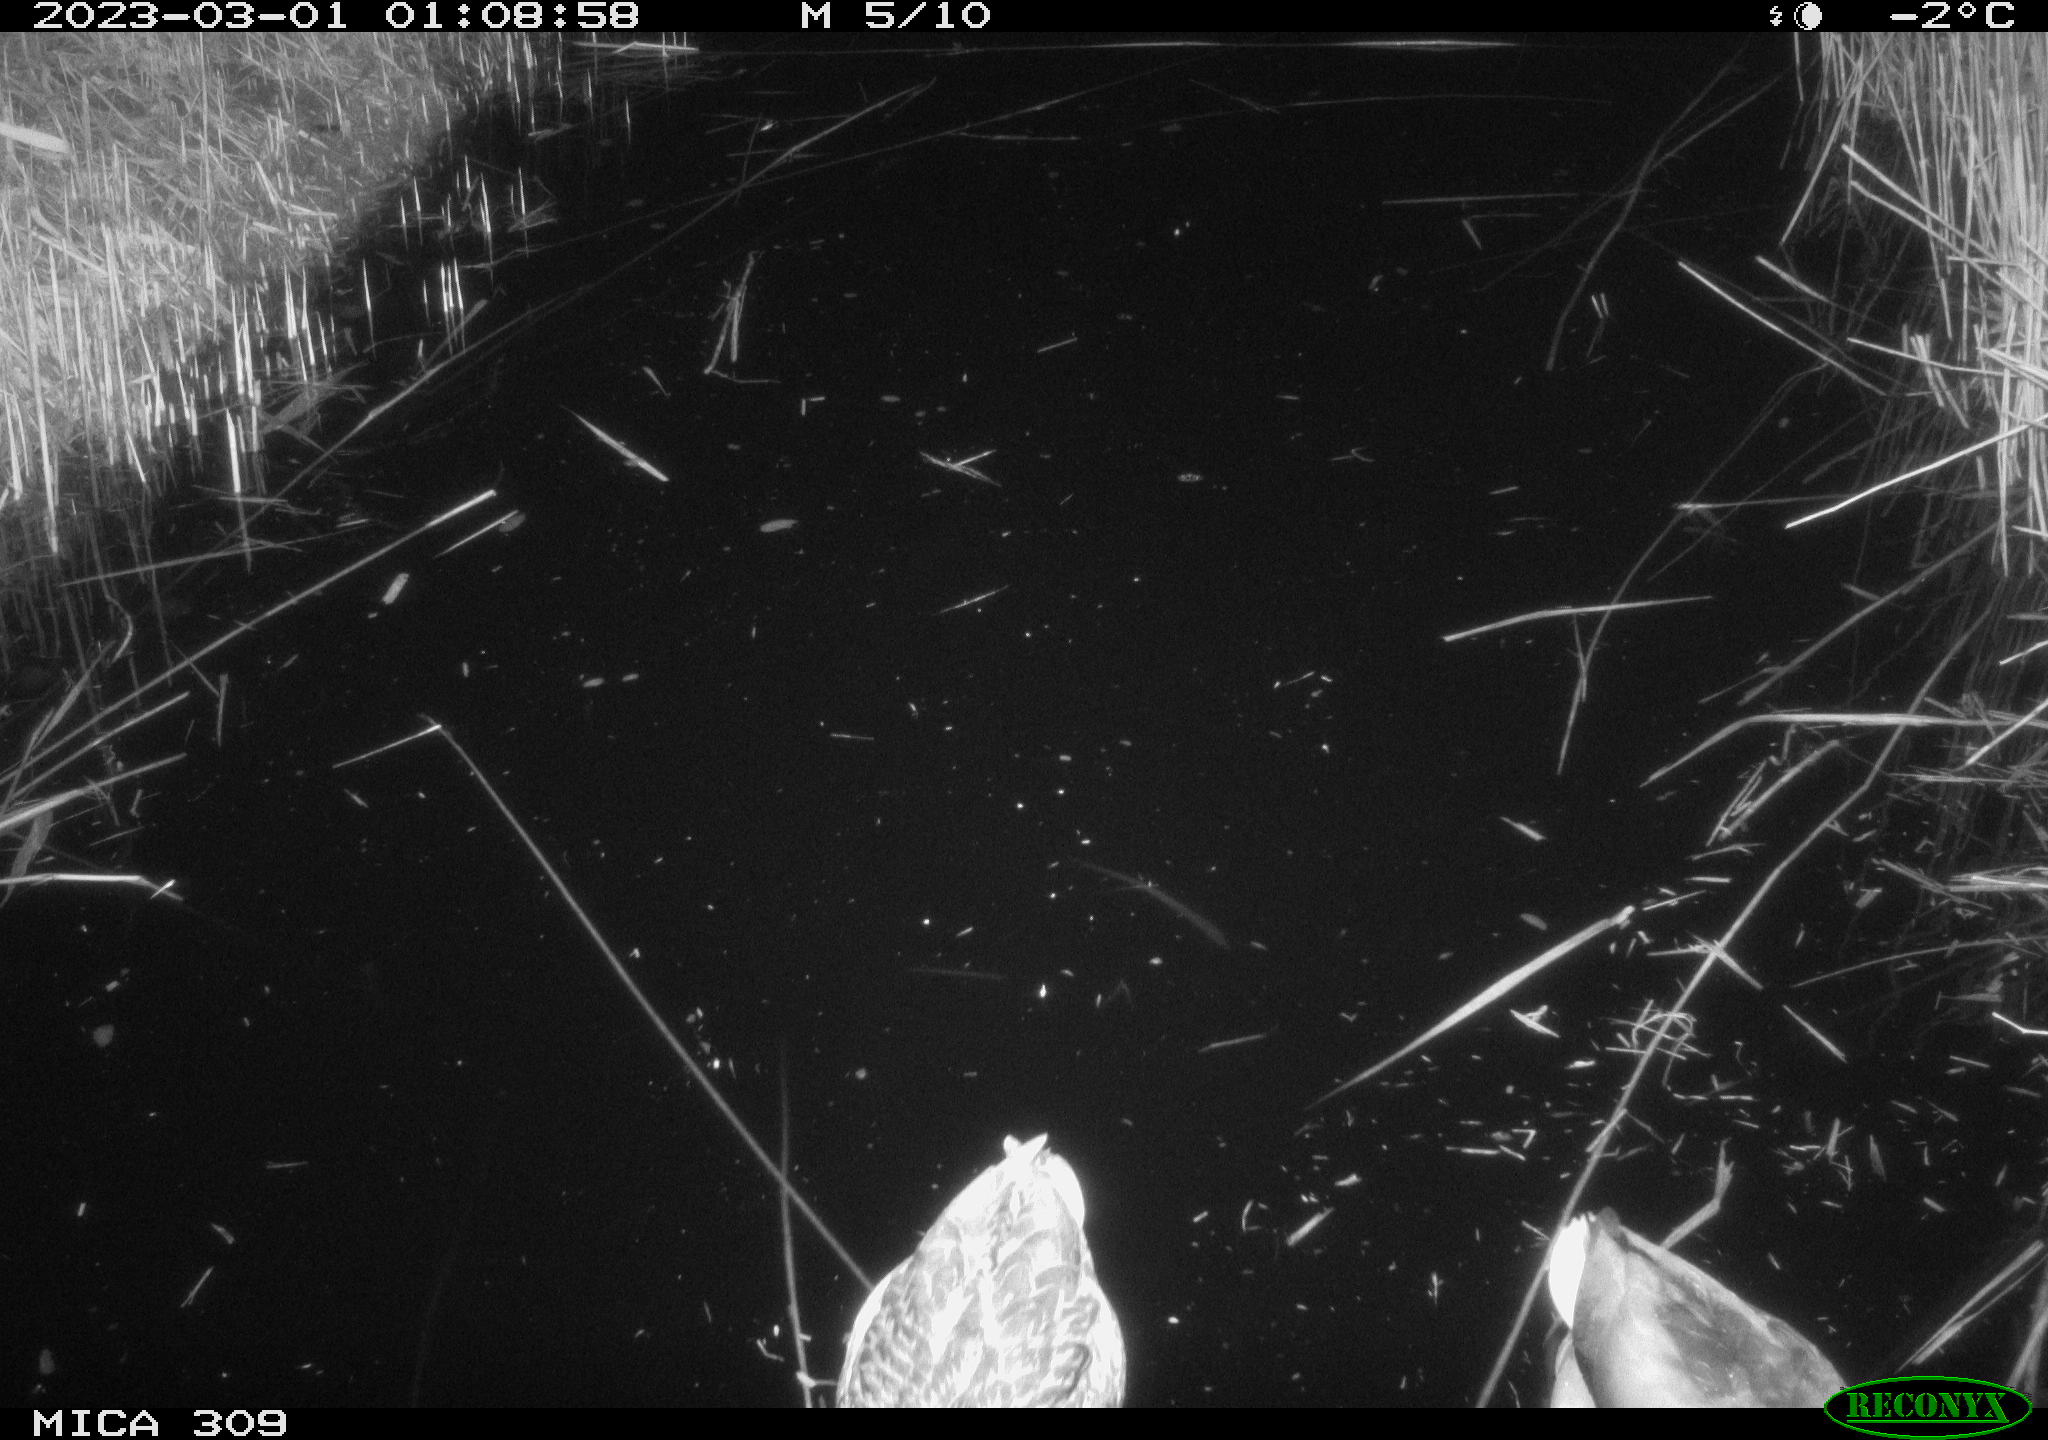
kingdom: Animalia
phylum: Chordata
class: Aves
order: Anseriformes
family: Anatidae
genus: Anas
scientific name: Anas
